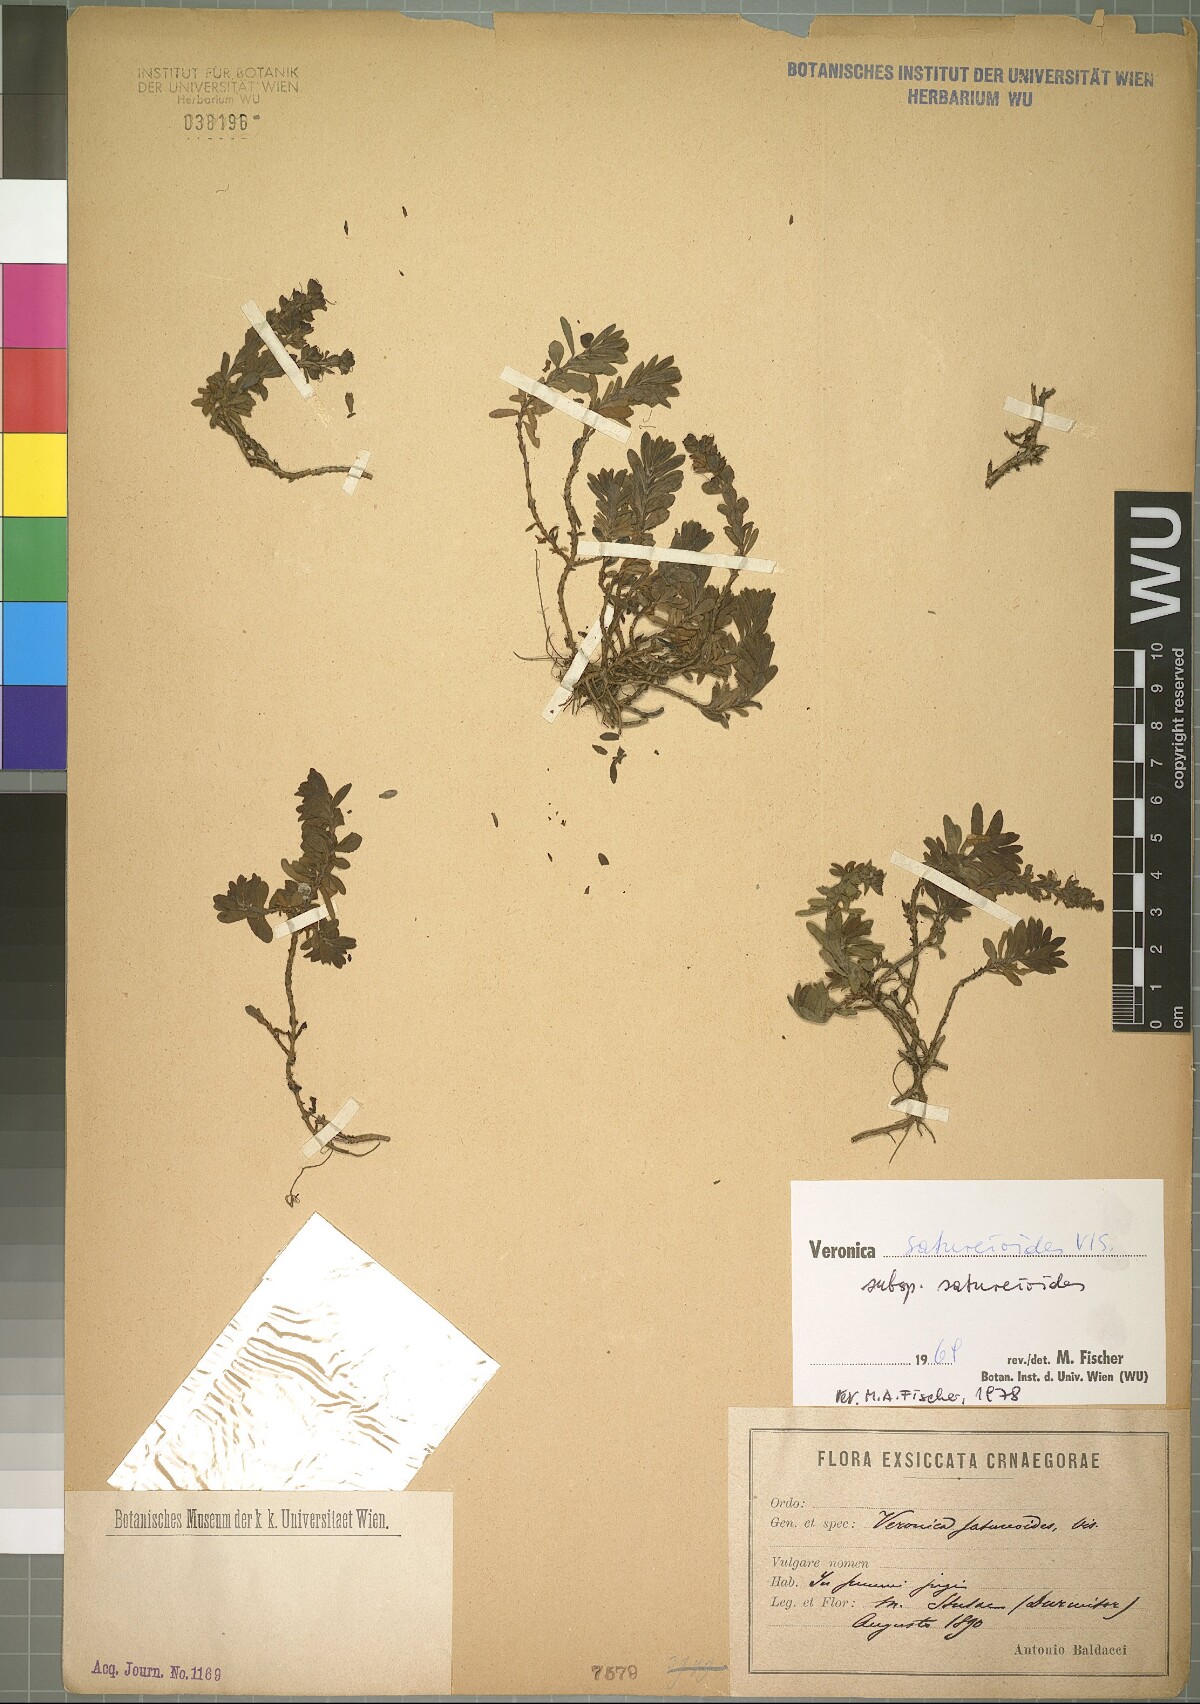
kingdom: Plantae
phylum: Tracheophyta
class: Magnoliopsida
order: Lamiales
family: Plantaginaceae
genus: Veronica
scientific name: Veronica saturejoides
